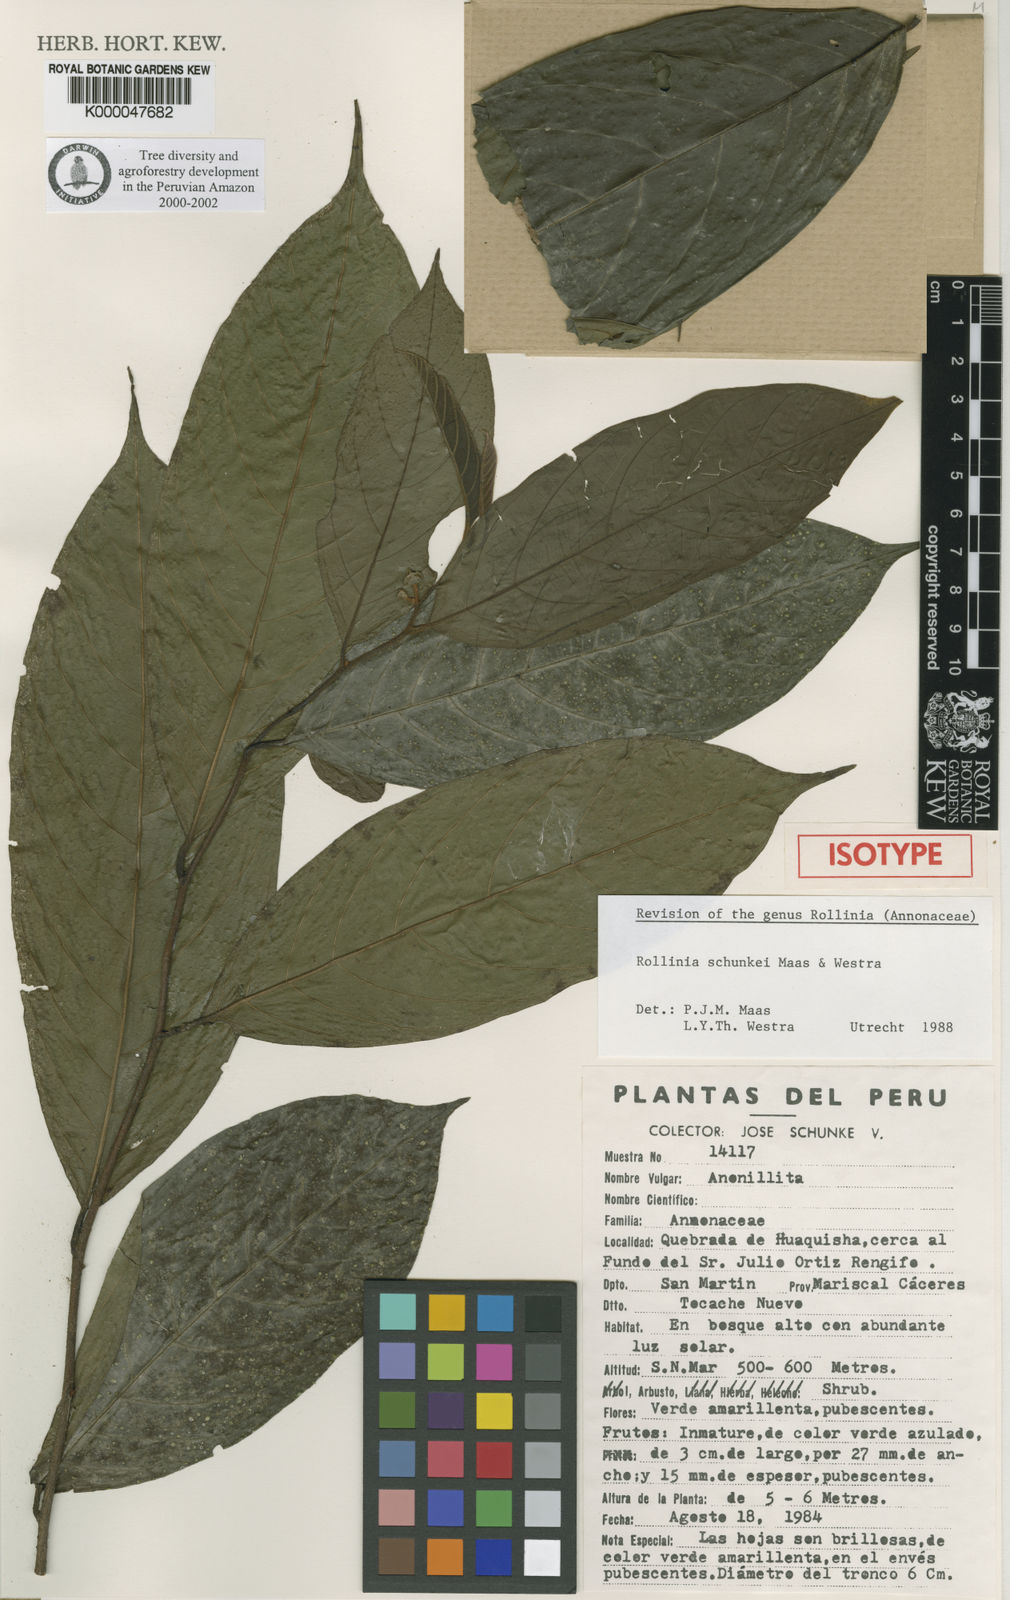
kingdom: Plantae
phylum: Tracheophyta
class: Magnoliopsida
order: Magnoliales
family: Annonaceae
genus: Annona
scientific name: Annona schunkei
